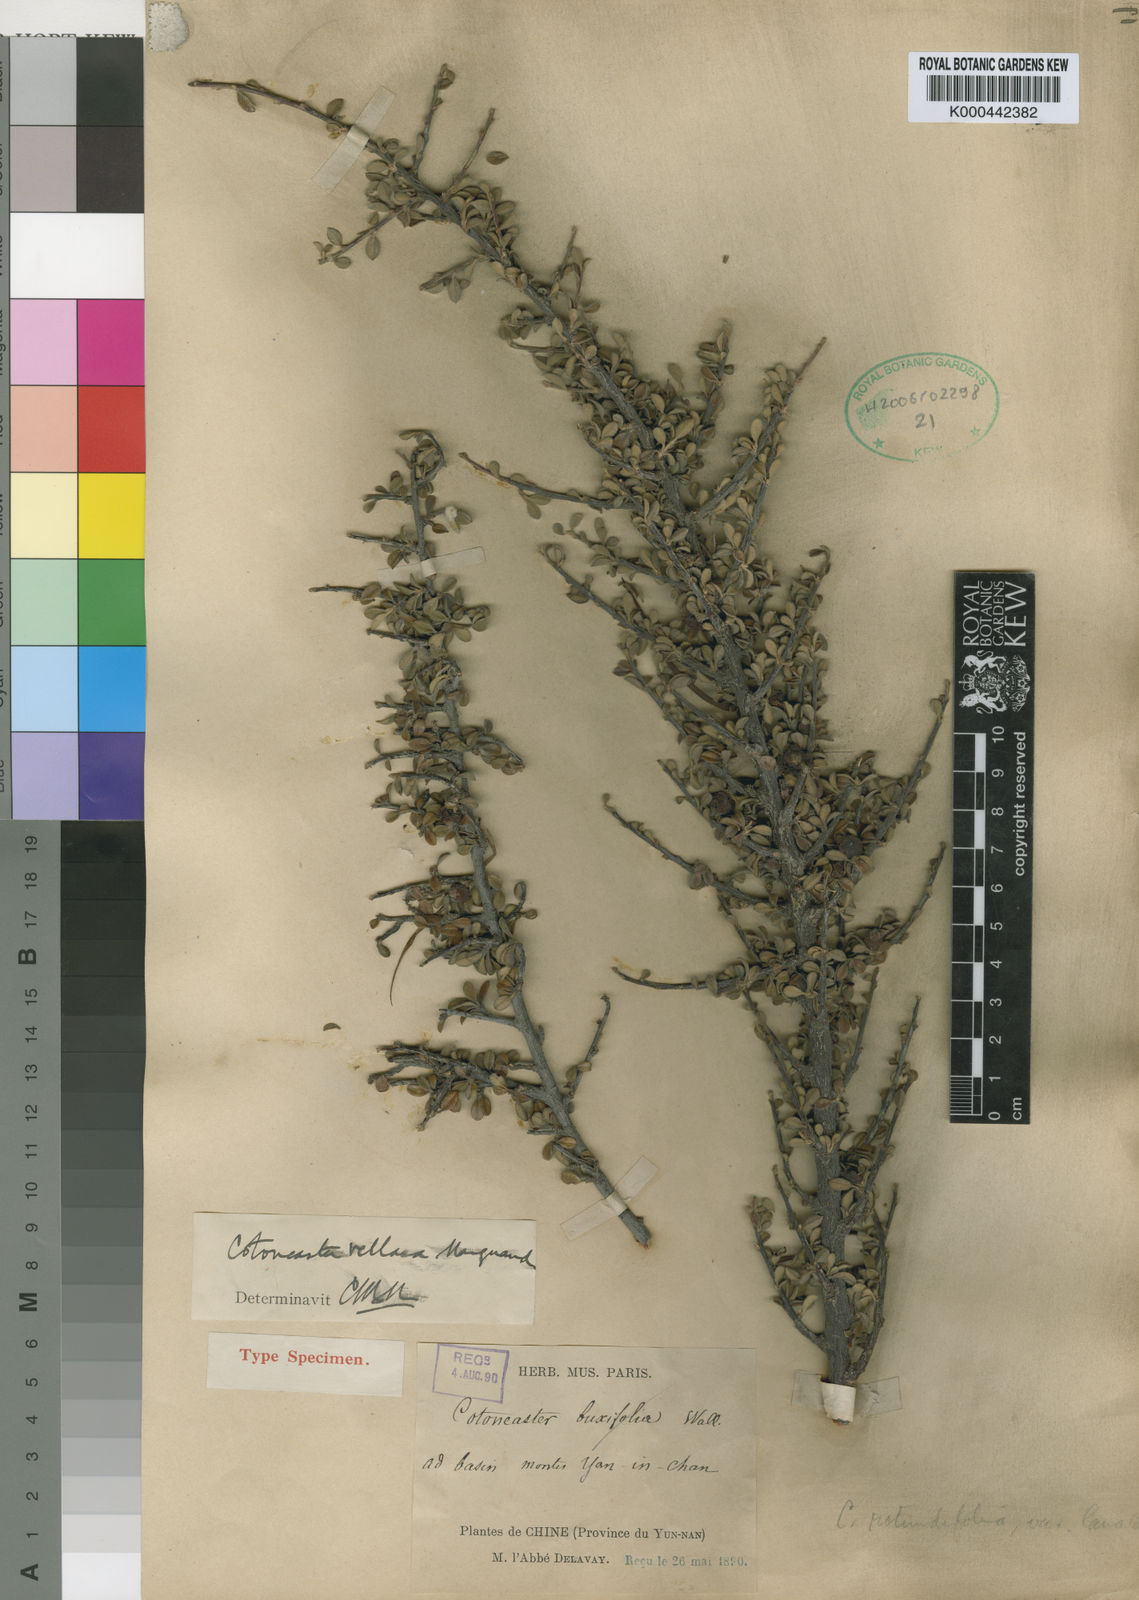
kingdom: Plantae
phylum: Tracheophyta
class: Magnoliopsida
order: Rosales
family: Rosaceae
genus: Cotoneaster
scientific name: Cotoneaster
